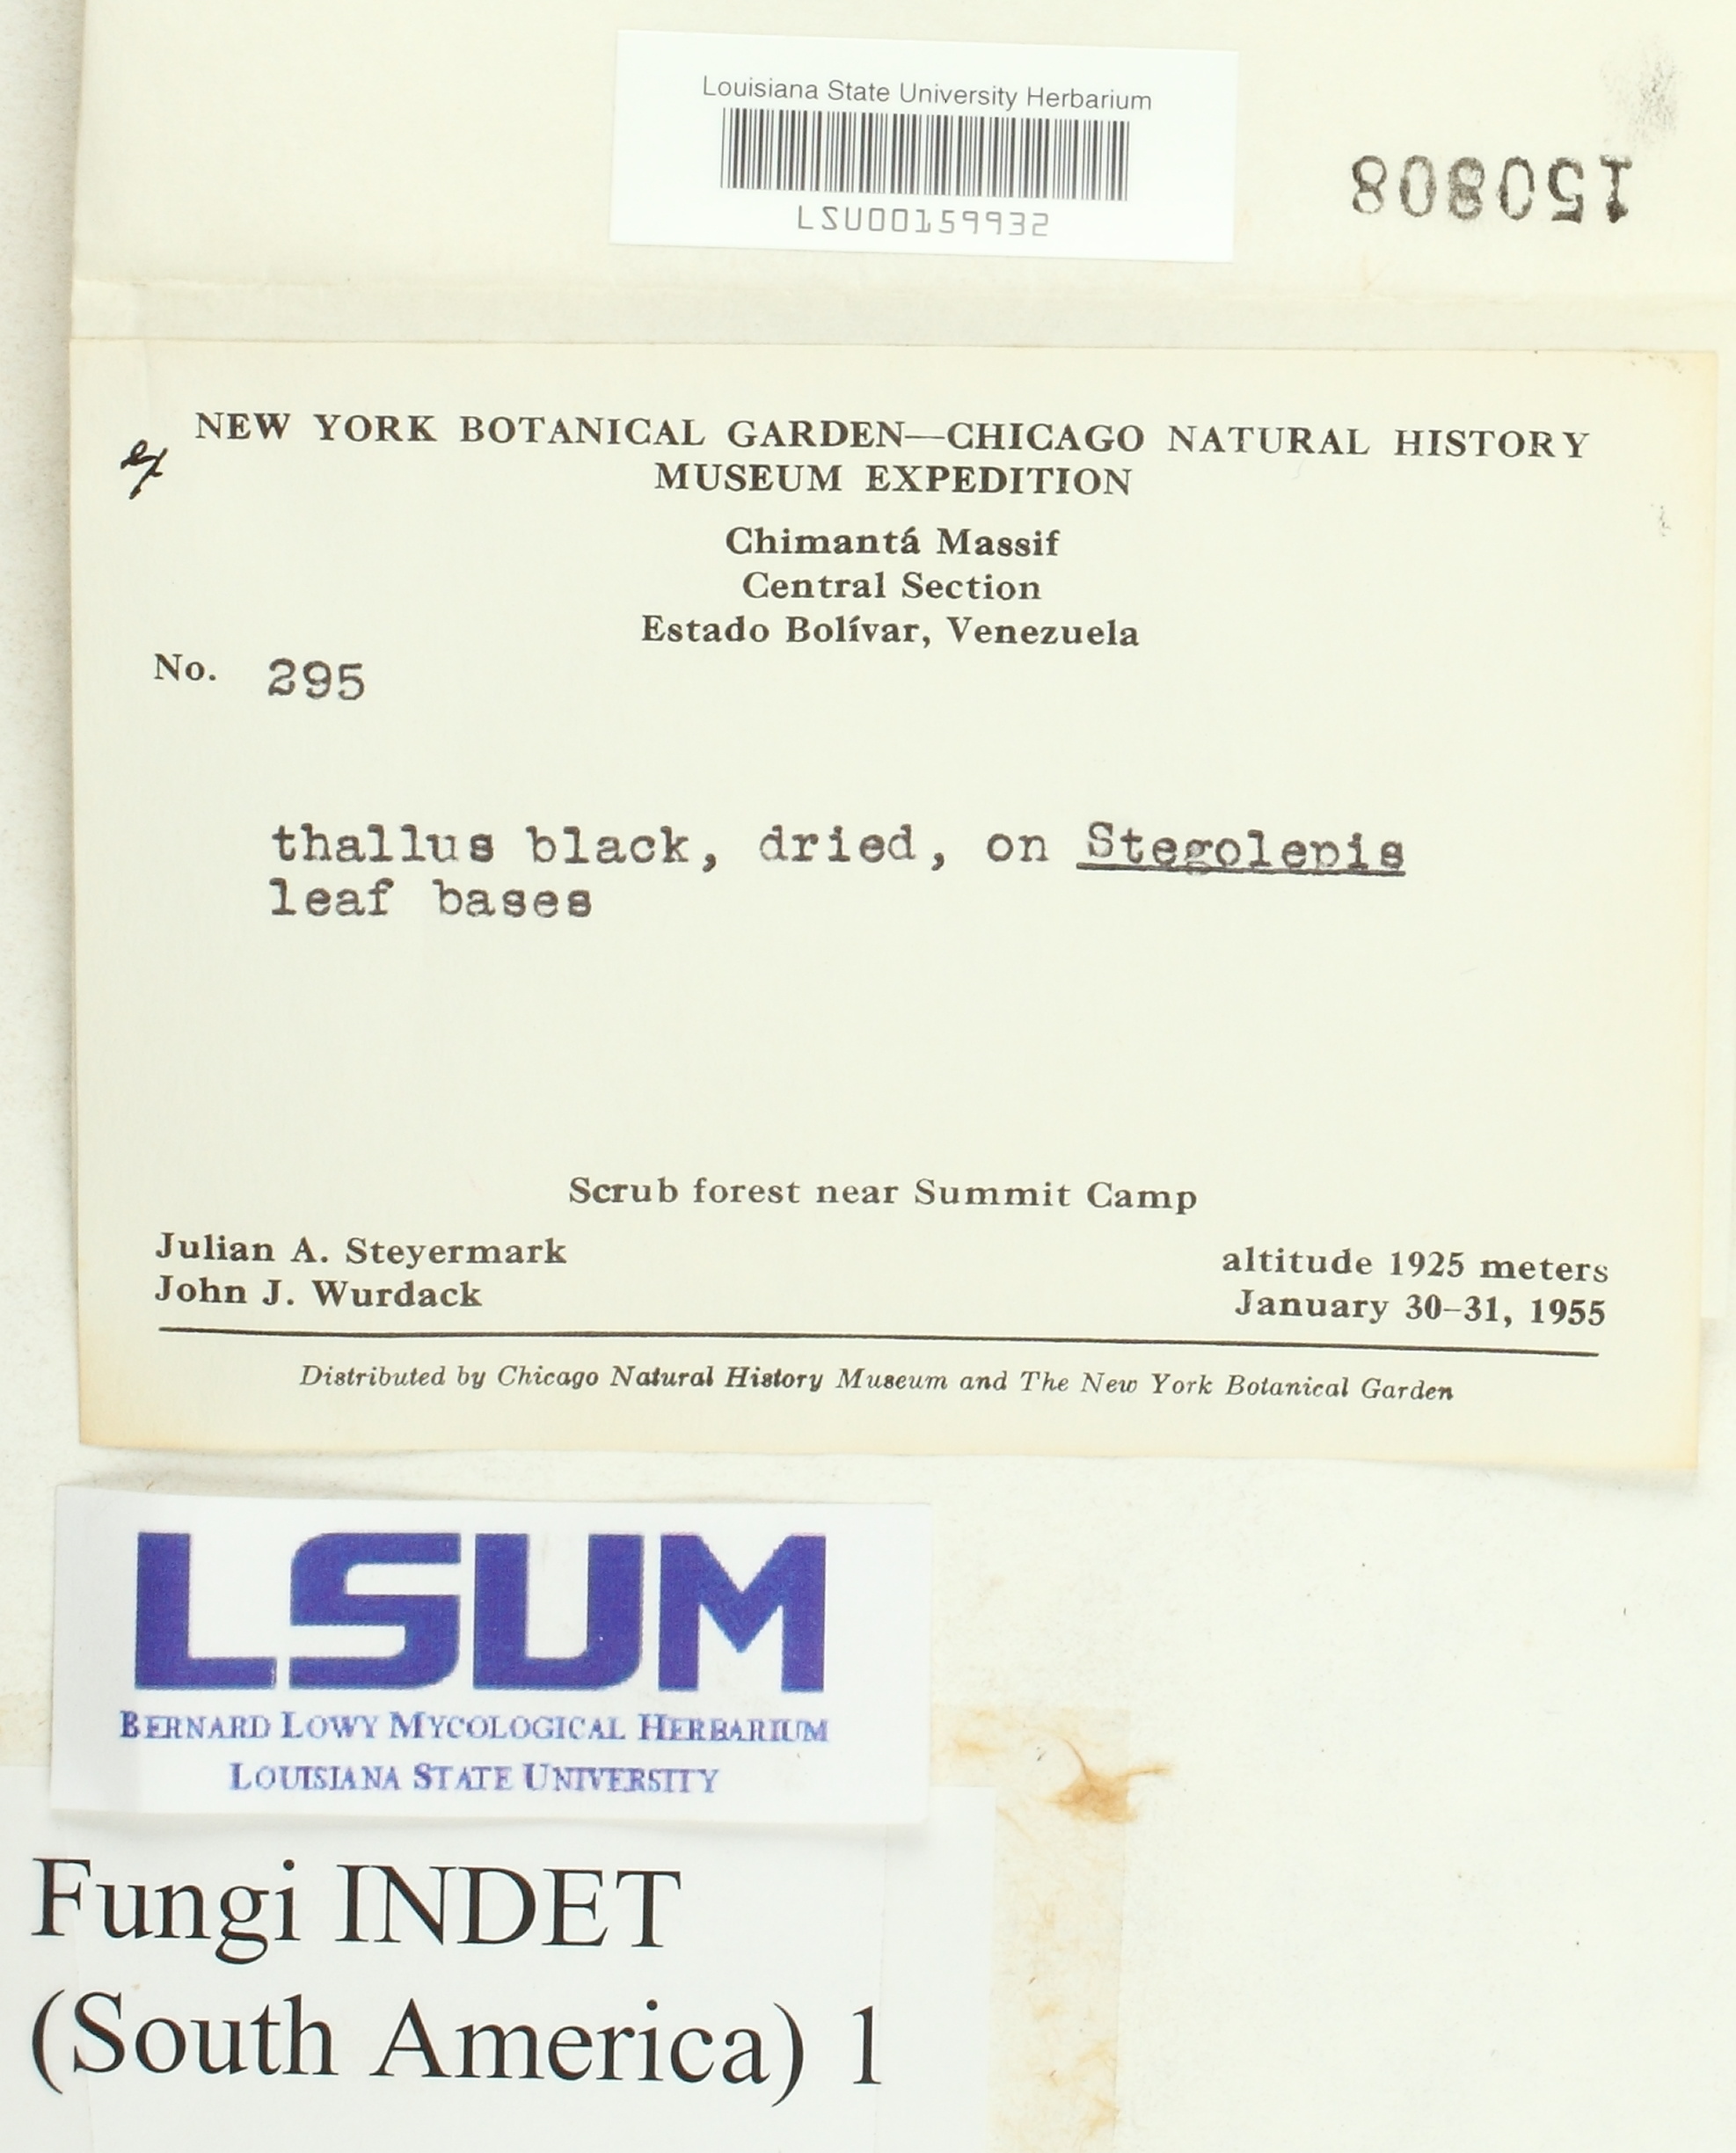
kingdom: Fungi
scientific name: Fungi
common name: Fungi
